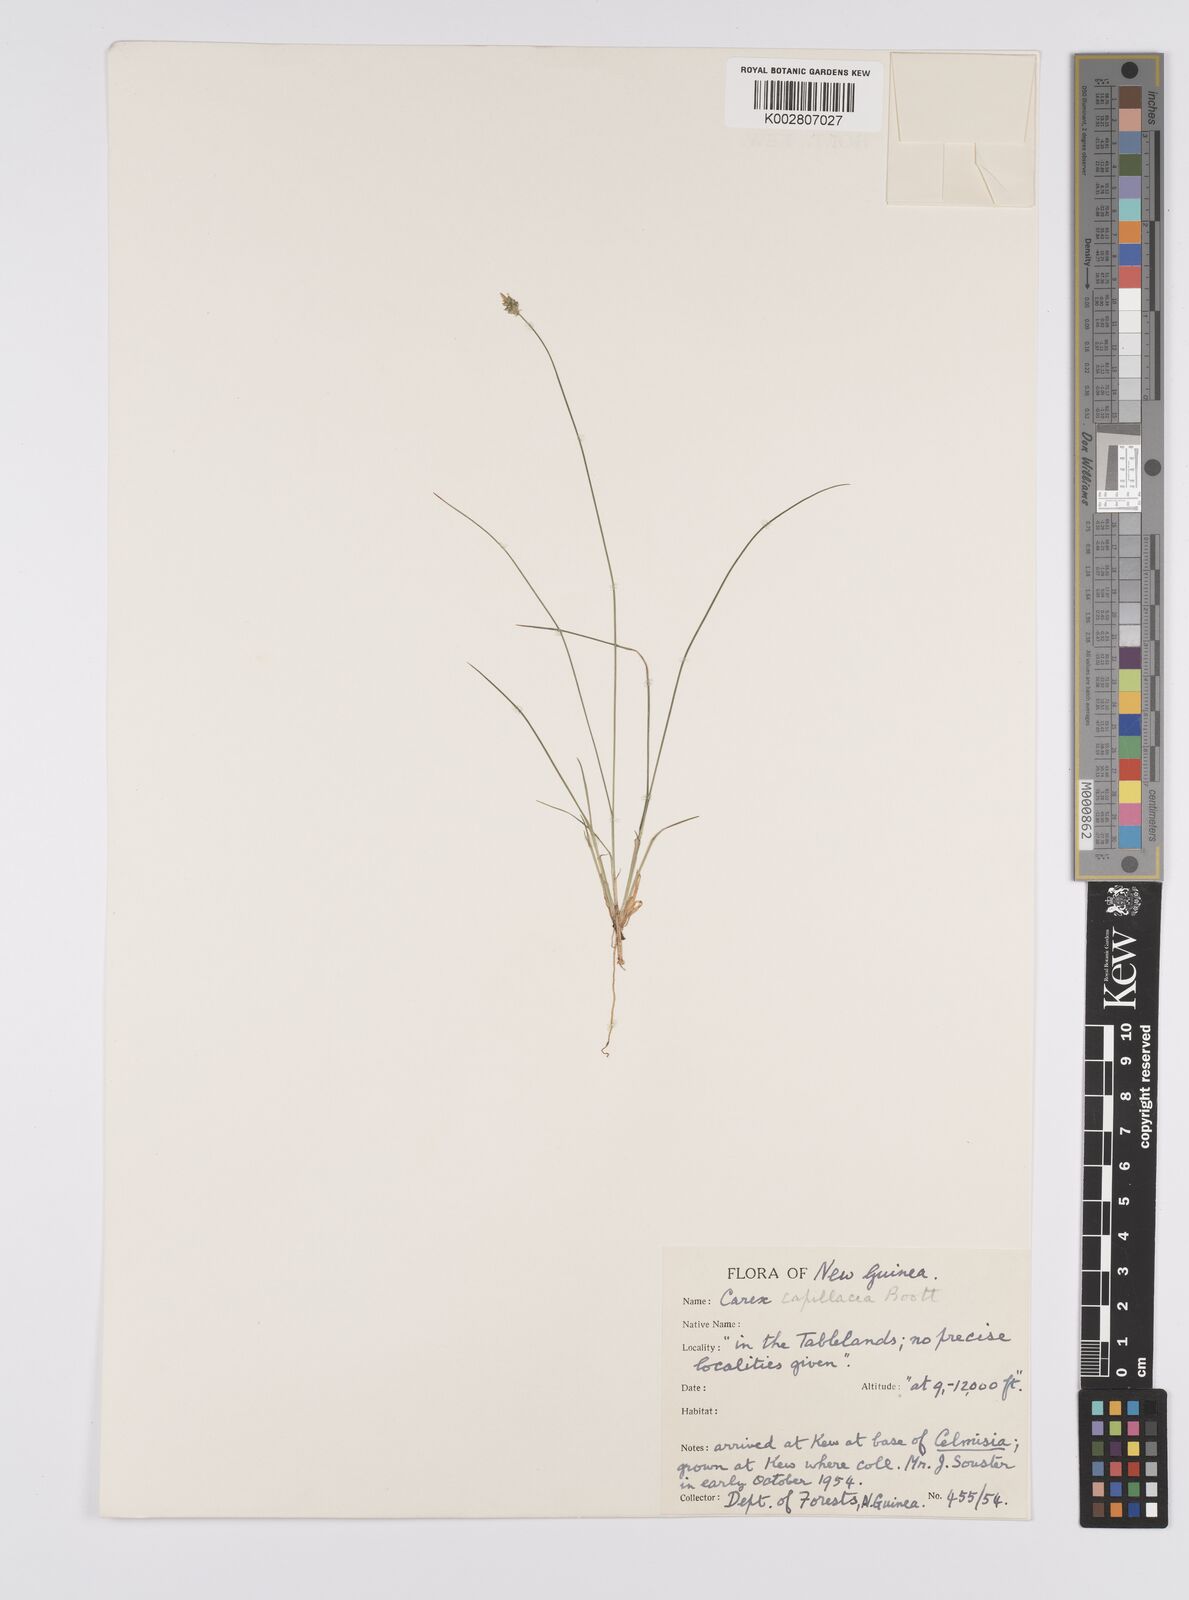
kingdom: Plantae
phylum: Tracheophyta
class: Liliopsida
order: Poales
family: Cyperaceae
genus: Carex
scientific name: Carex capillacea
